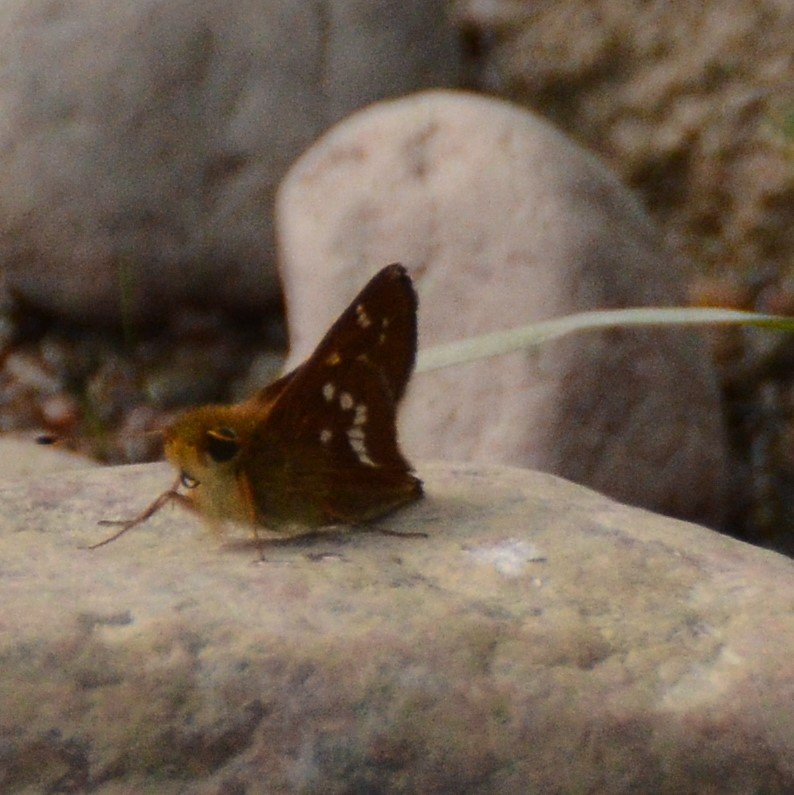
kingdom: Animalia
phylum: Arthropoda
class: Insecta
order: Lepidoptera
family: Hesperiidae
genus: Hesperia
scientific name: Hesperia leonardus
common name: Leonard's Skipper
